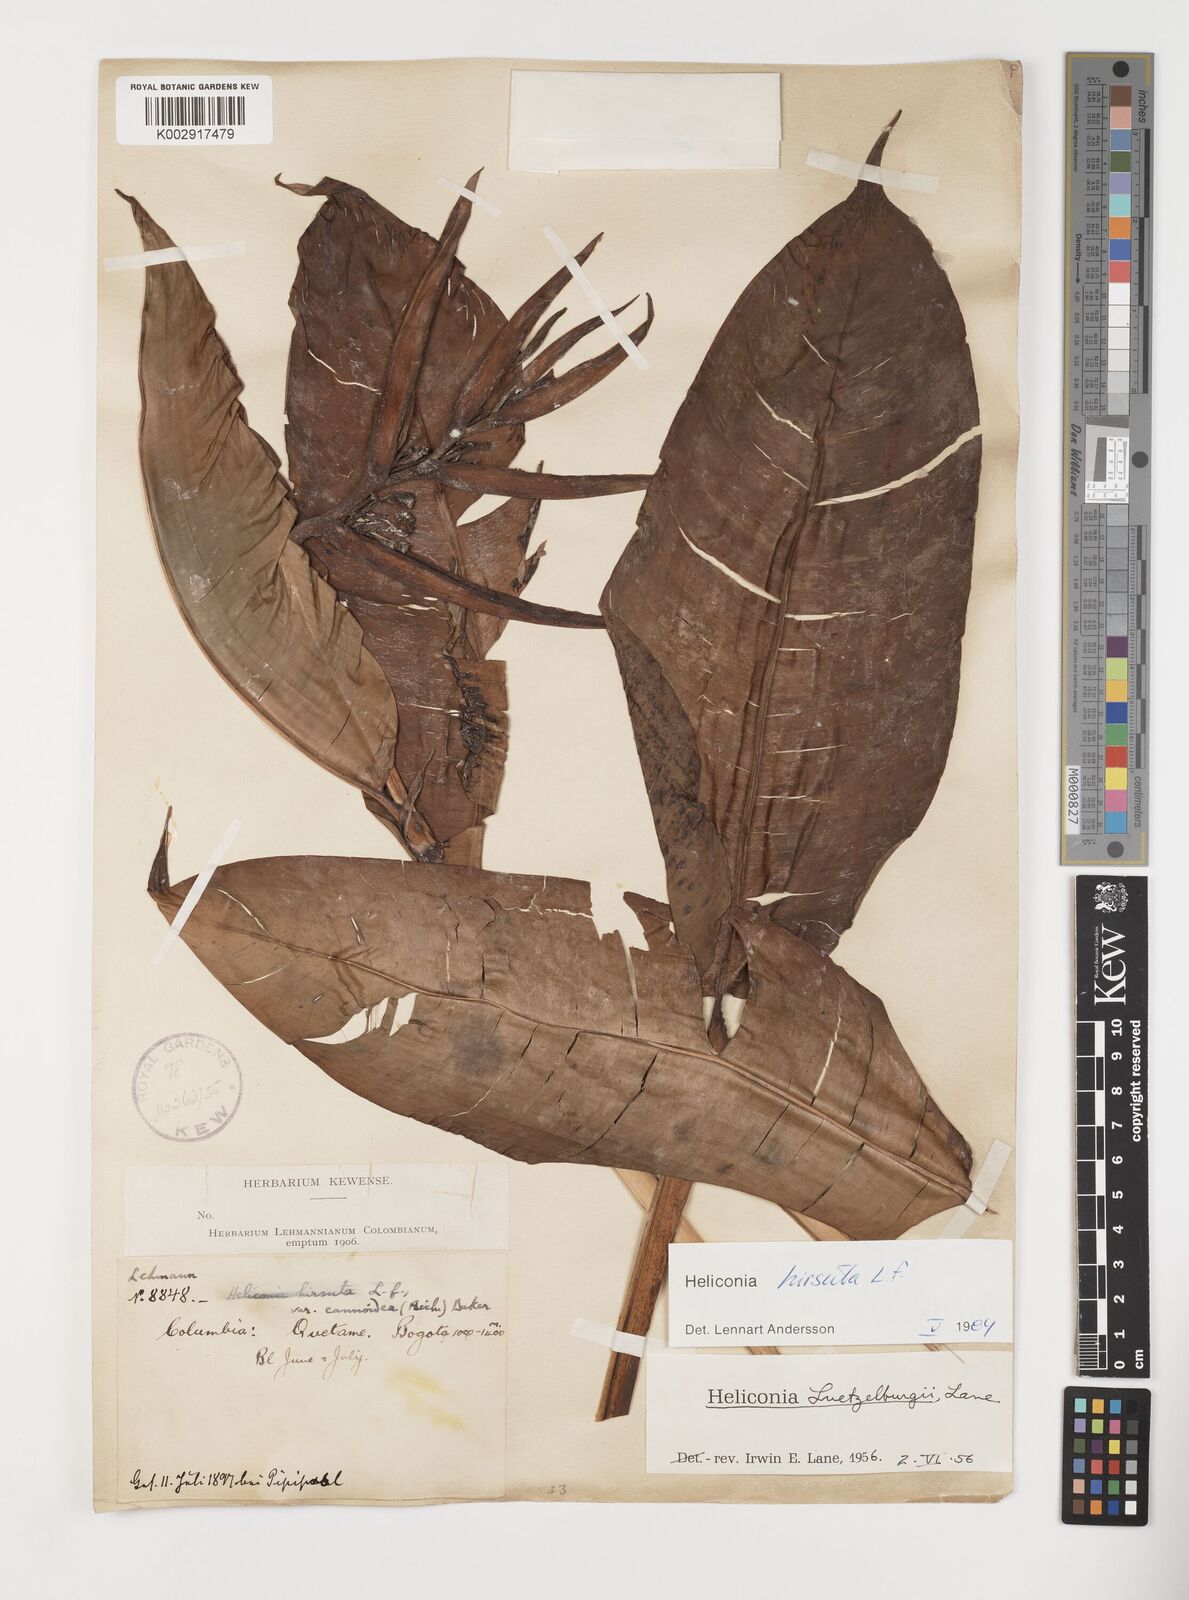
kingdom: Plantae
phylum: Tracheophyta
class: Liliopsida
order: Zingiberales
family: Heliconiaceae
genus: Heliconia
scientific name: Heliconia schiedeana
